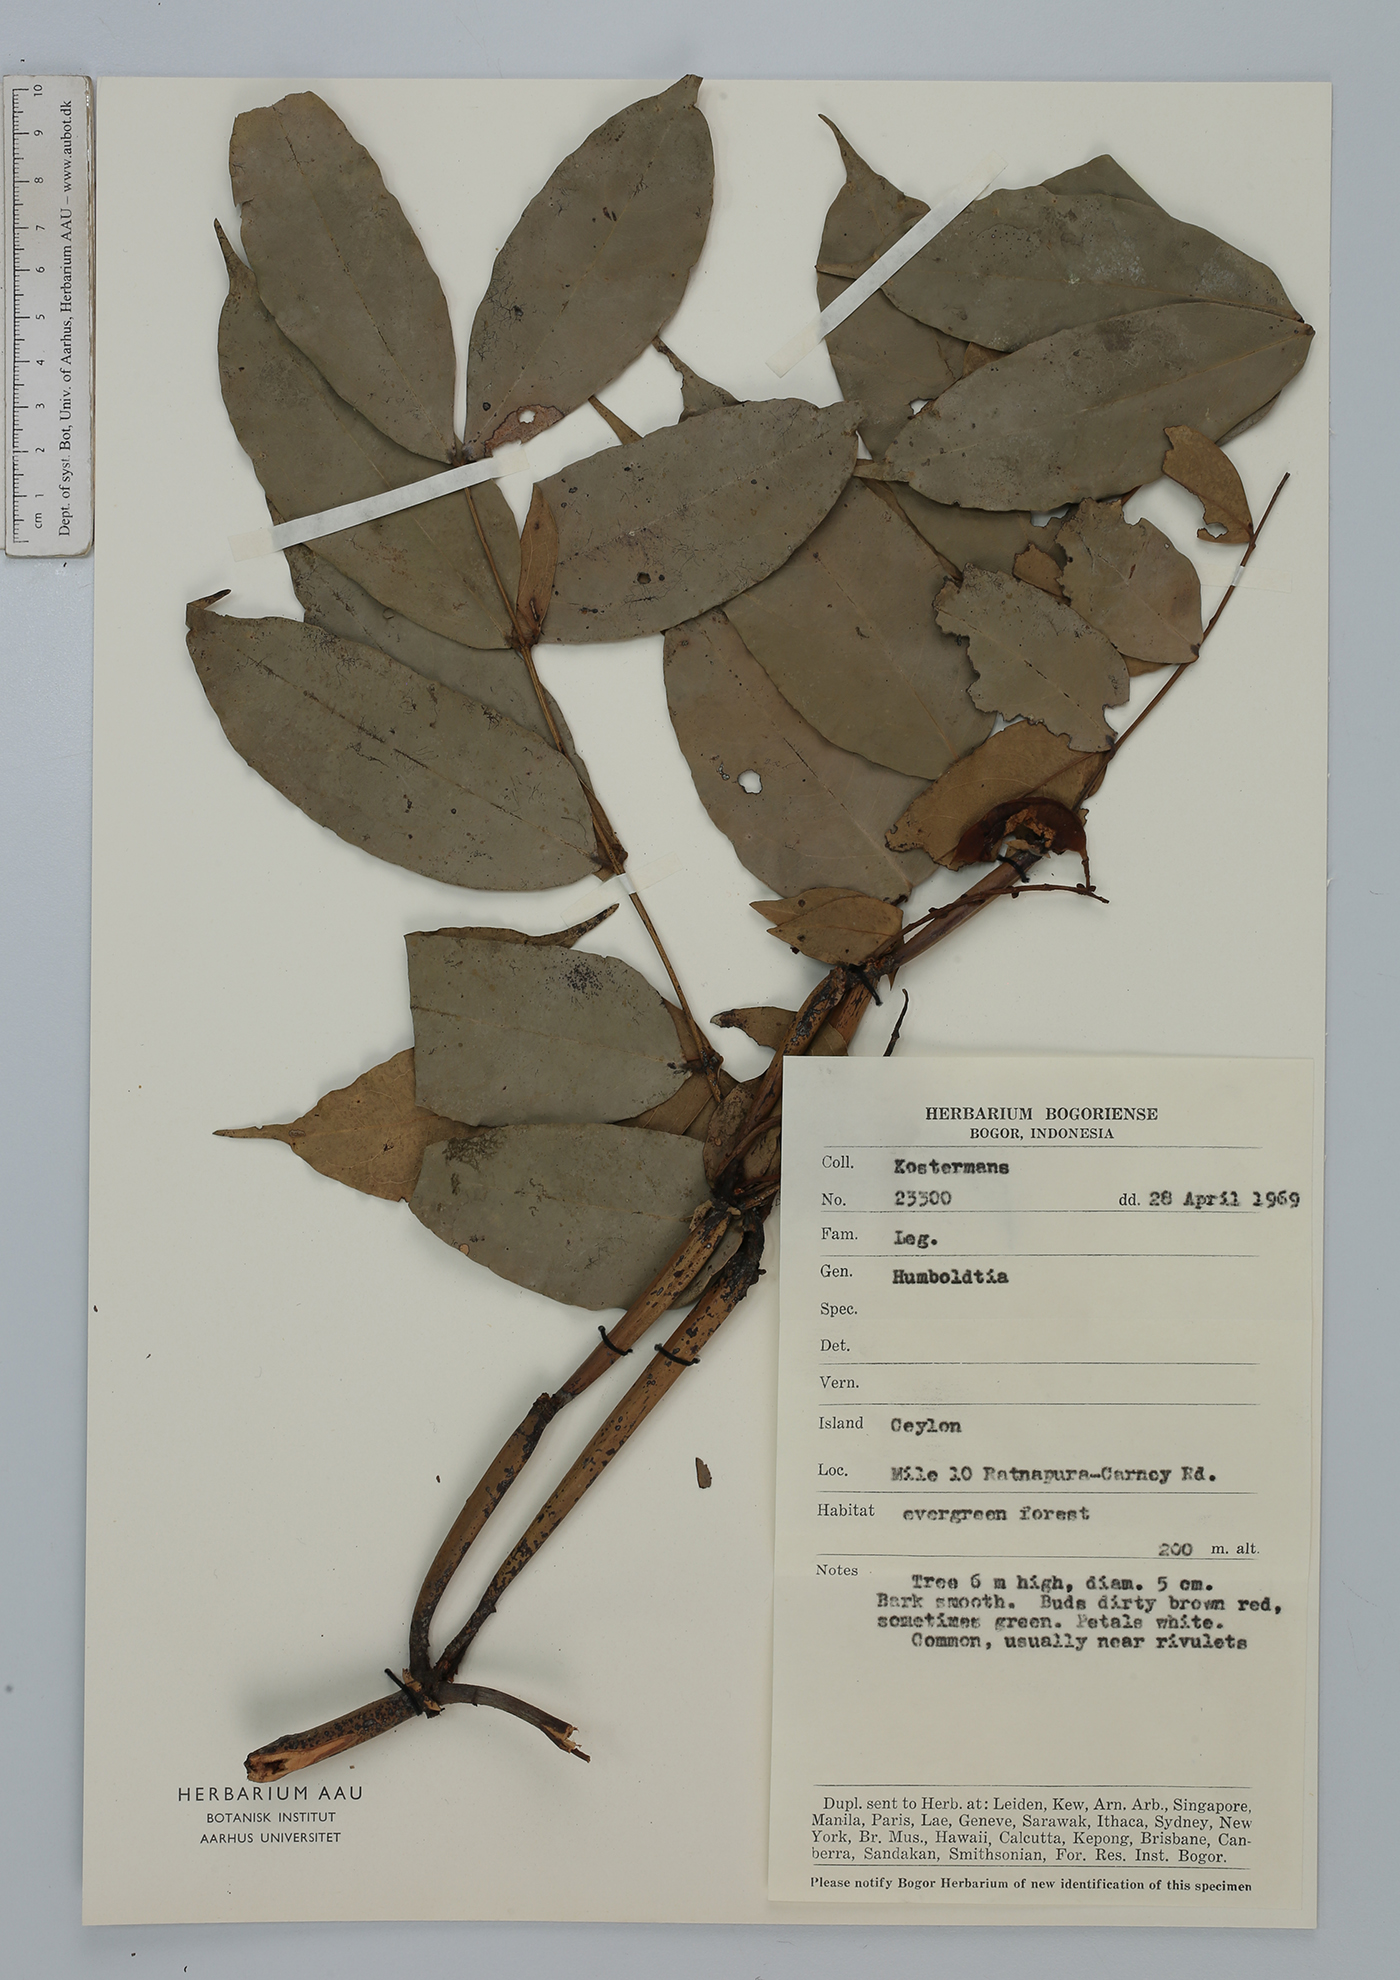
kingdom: Plantae
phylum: Tracheophyta
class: Magnoliopsida
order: Fabales
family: Fabaceae
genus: Humboldtia
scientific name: Humboldtia
